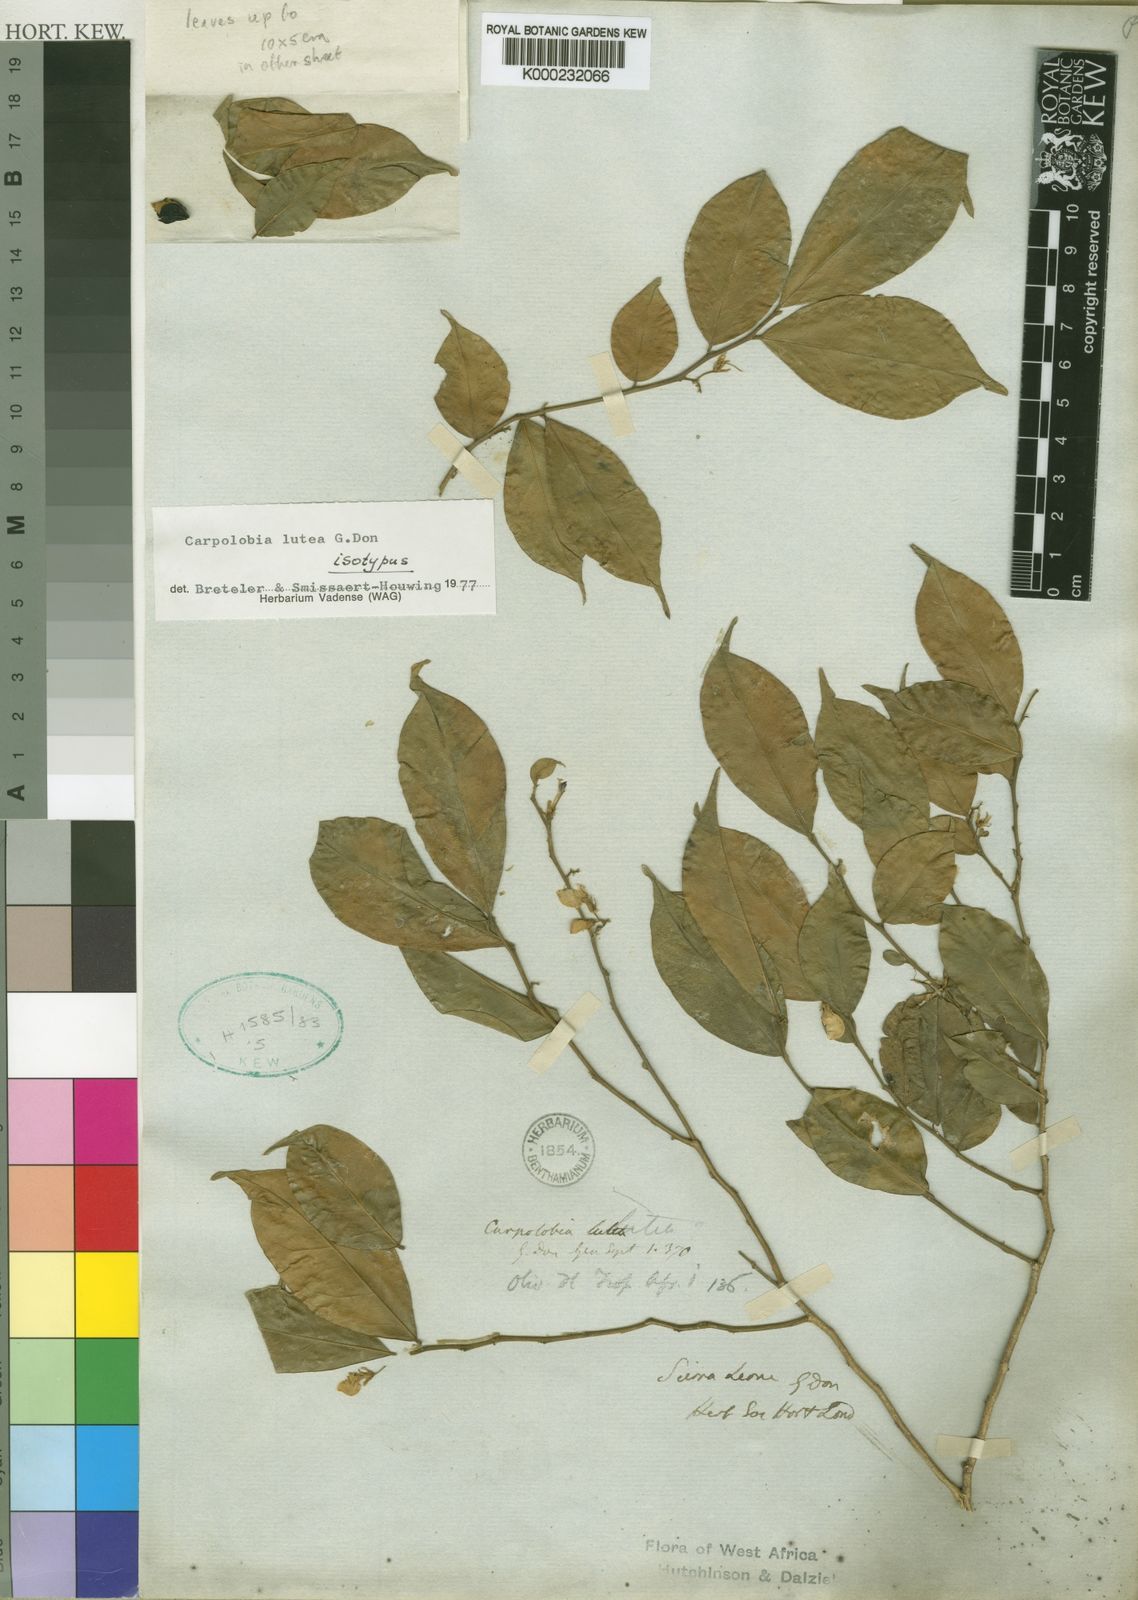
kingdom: Plantae
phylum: Tracheophyta
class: Magnoliopsida
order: Fabales
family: Polygalaceae
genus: Carpolobia
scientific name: Carpolobia lutea
